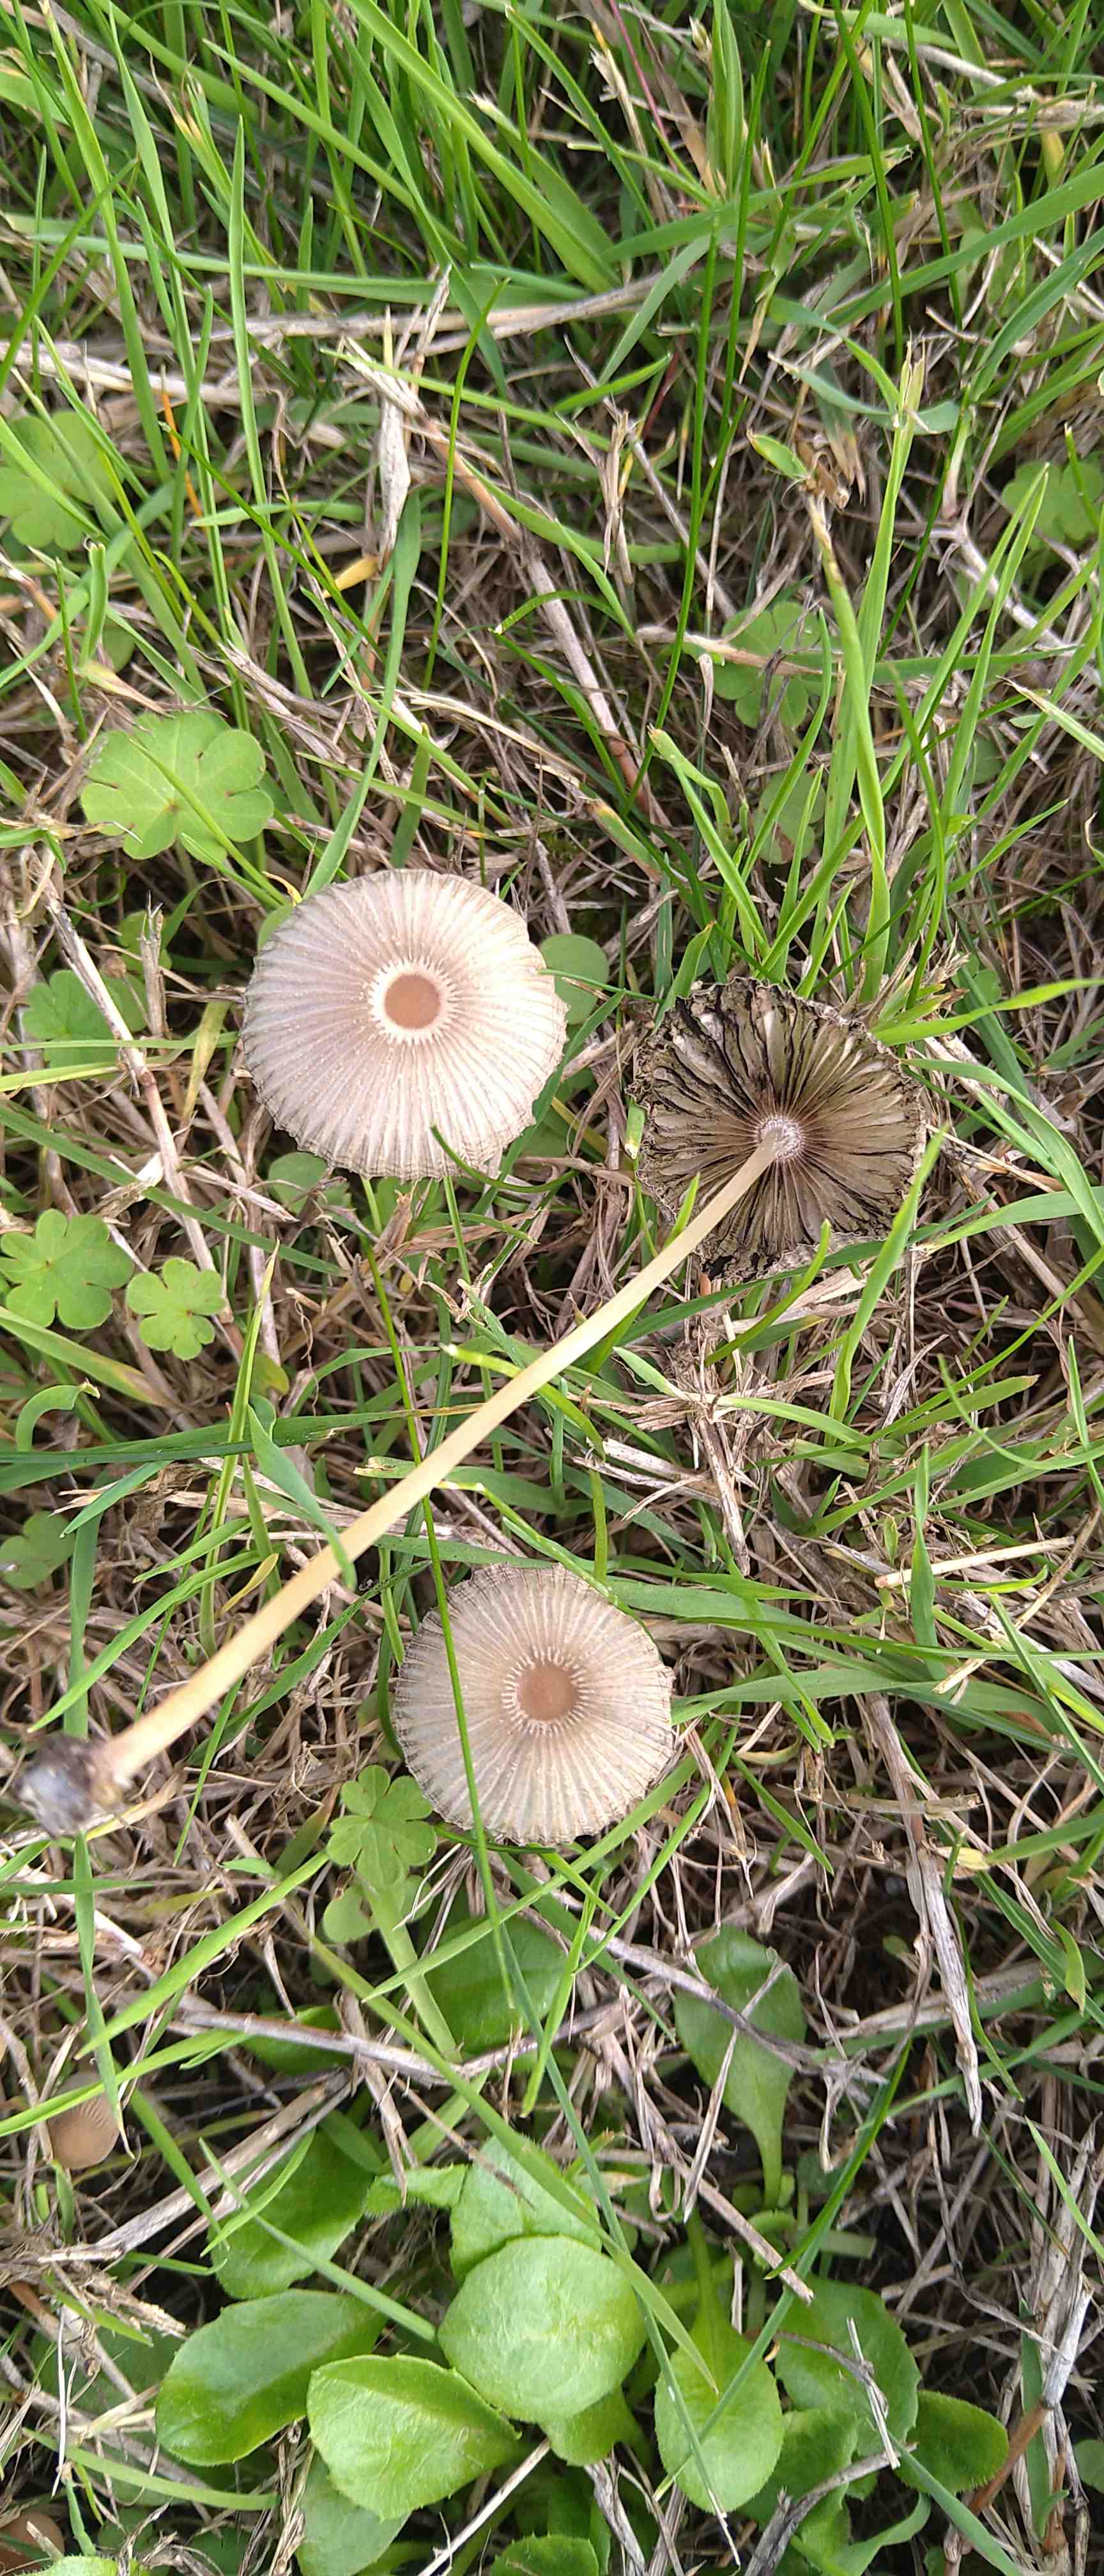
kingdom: Fungi
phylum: Basidiomycota
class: Agaricomycetes
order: Agaricales
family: Psathyrellaceae
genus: Parasola
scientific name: Parasola
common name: hjulhat
